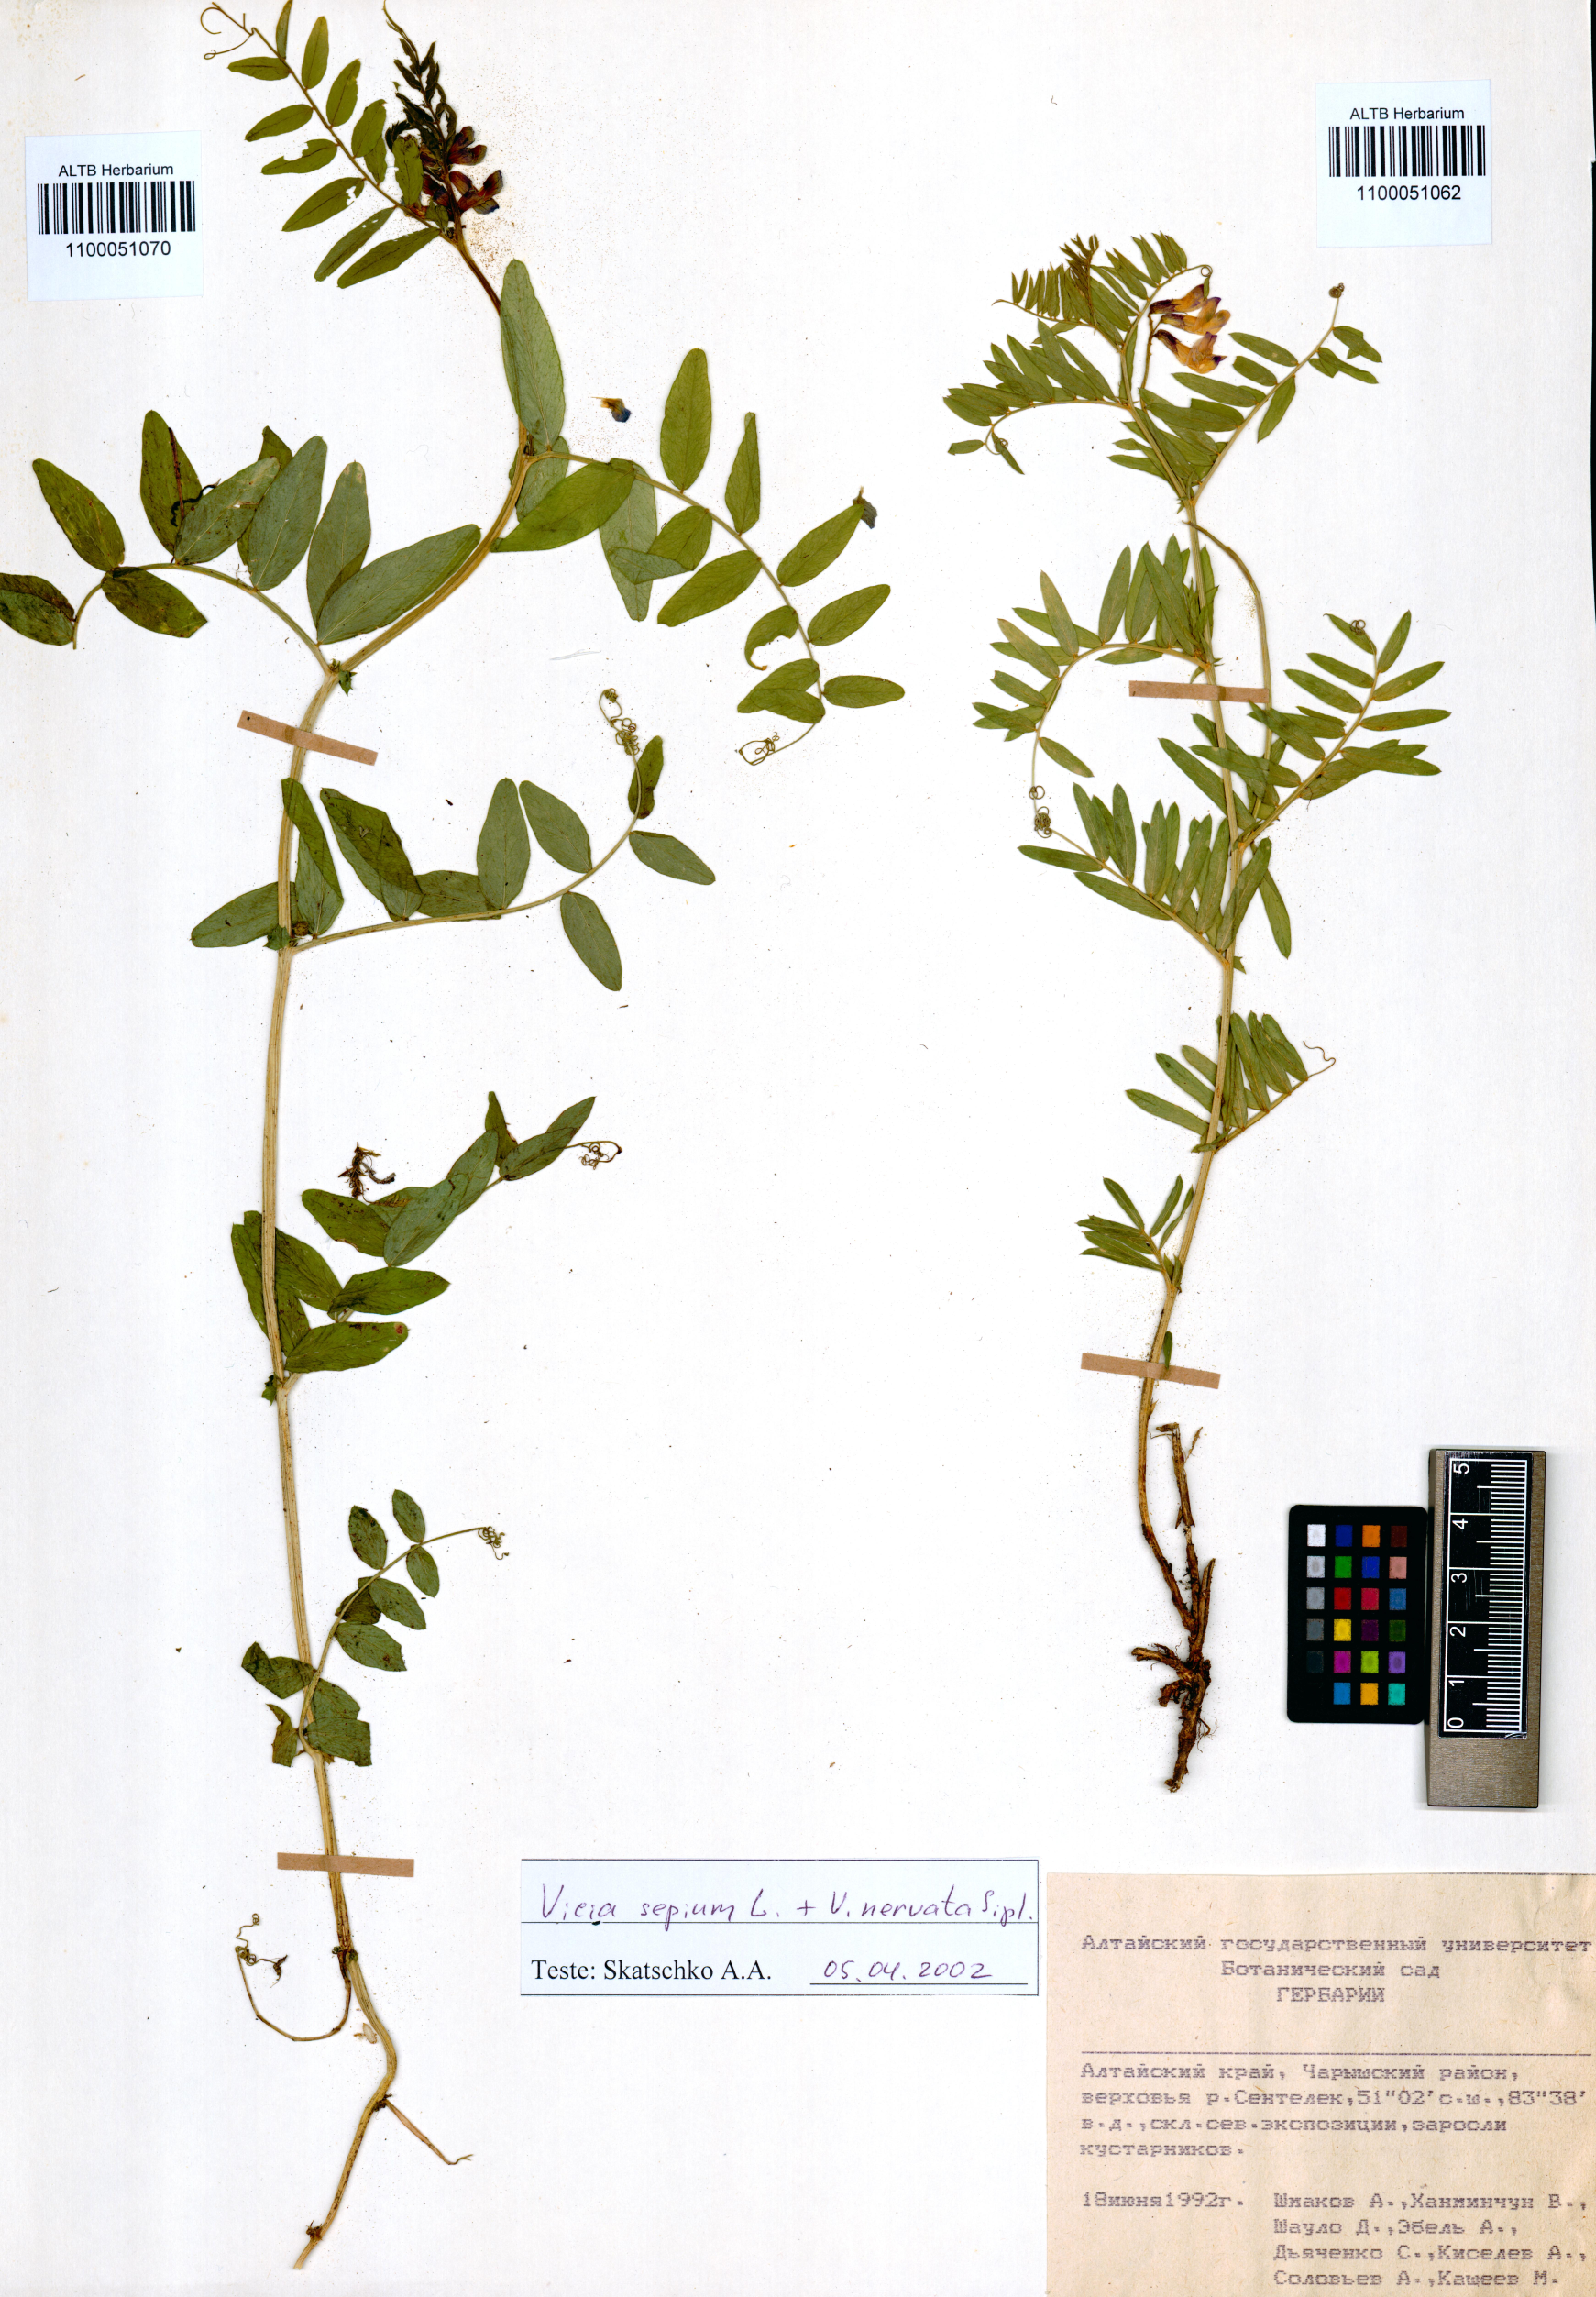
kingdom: Plantae
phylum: Tracheophyta
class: Magnoliopsida
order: Fabales
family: Fabaceae
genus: Vicia
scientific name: Vicia sepium
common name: Bush vetch
